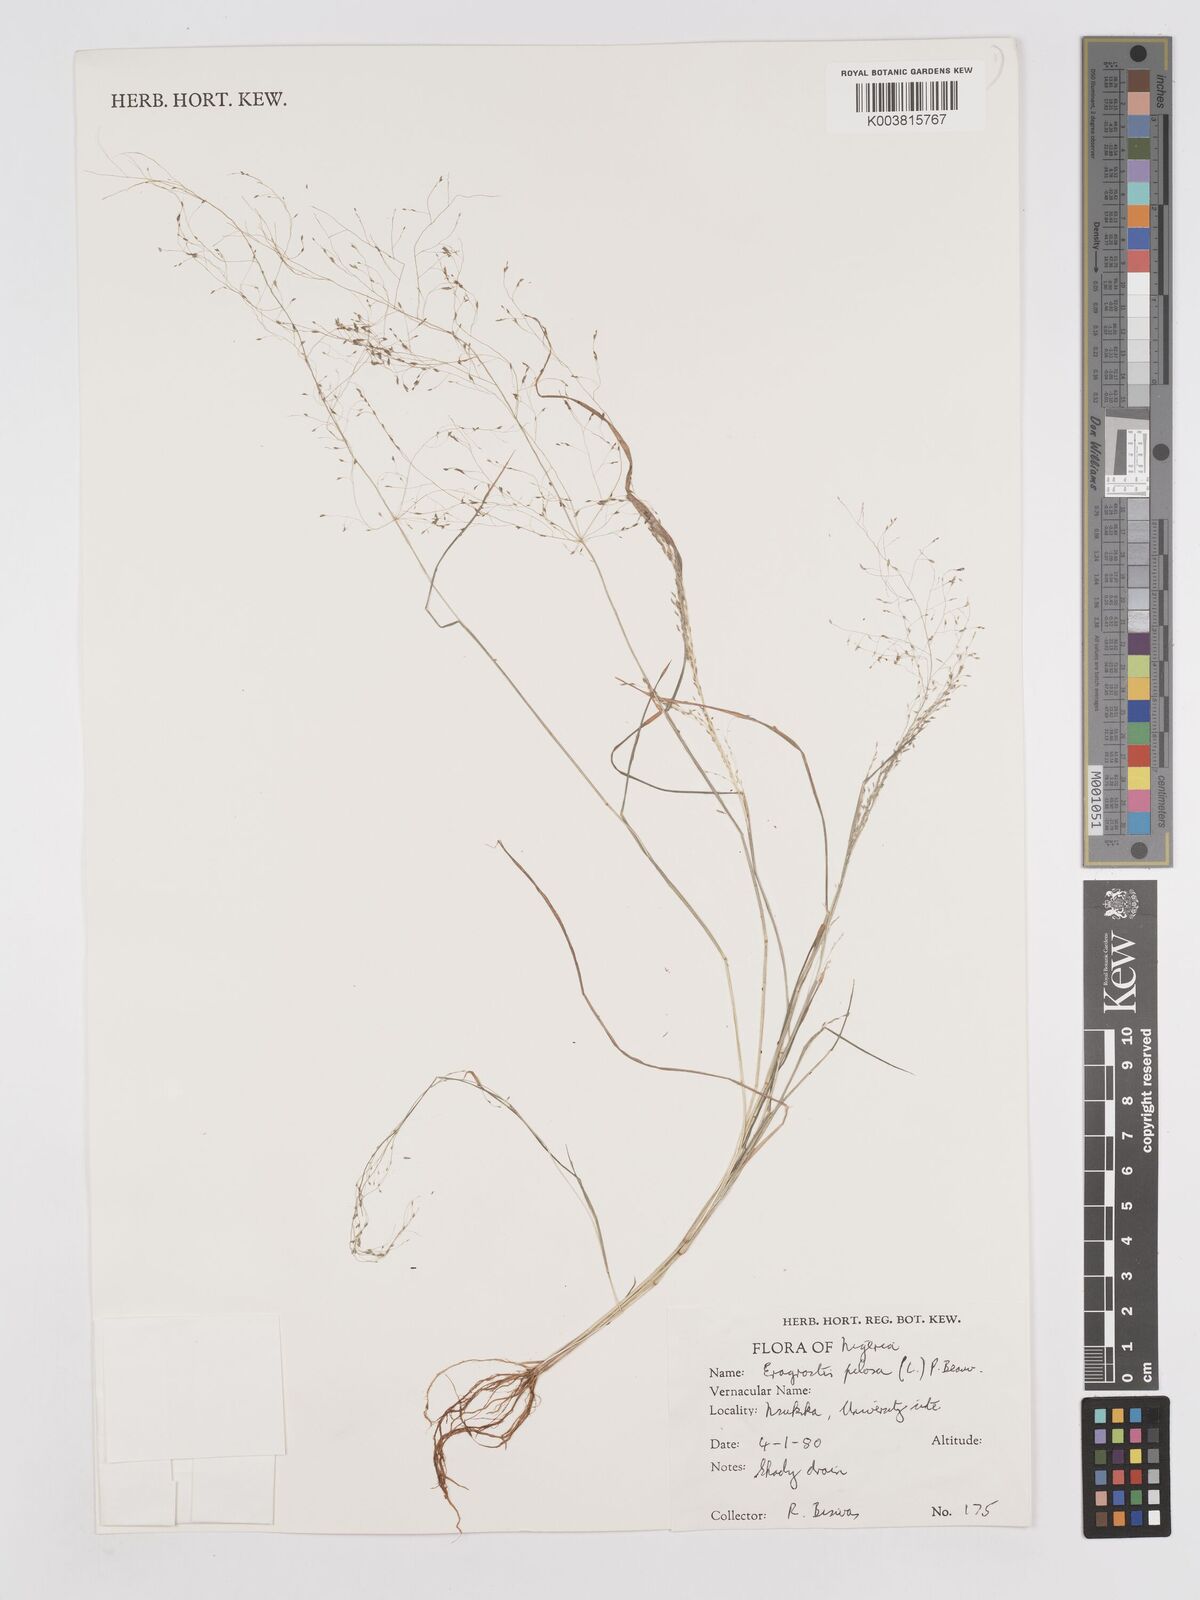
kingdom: Plantae
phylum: Tracheophyta
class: Liliopsida
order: Poales
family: Poaceae
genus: Eragrostis
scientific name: Eragrostis pilosa
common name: Indian lovegrass
